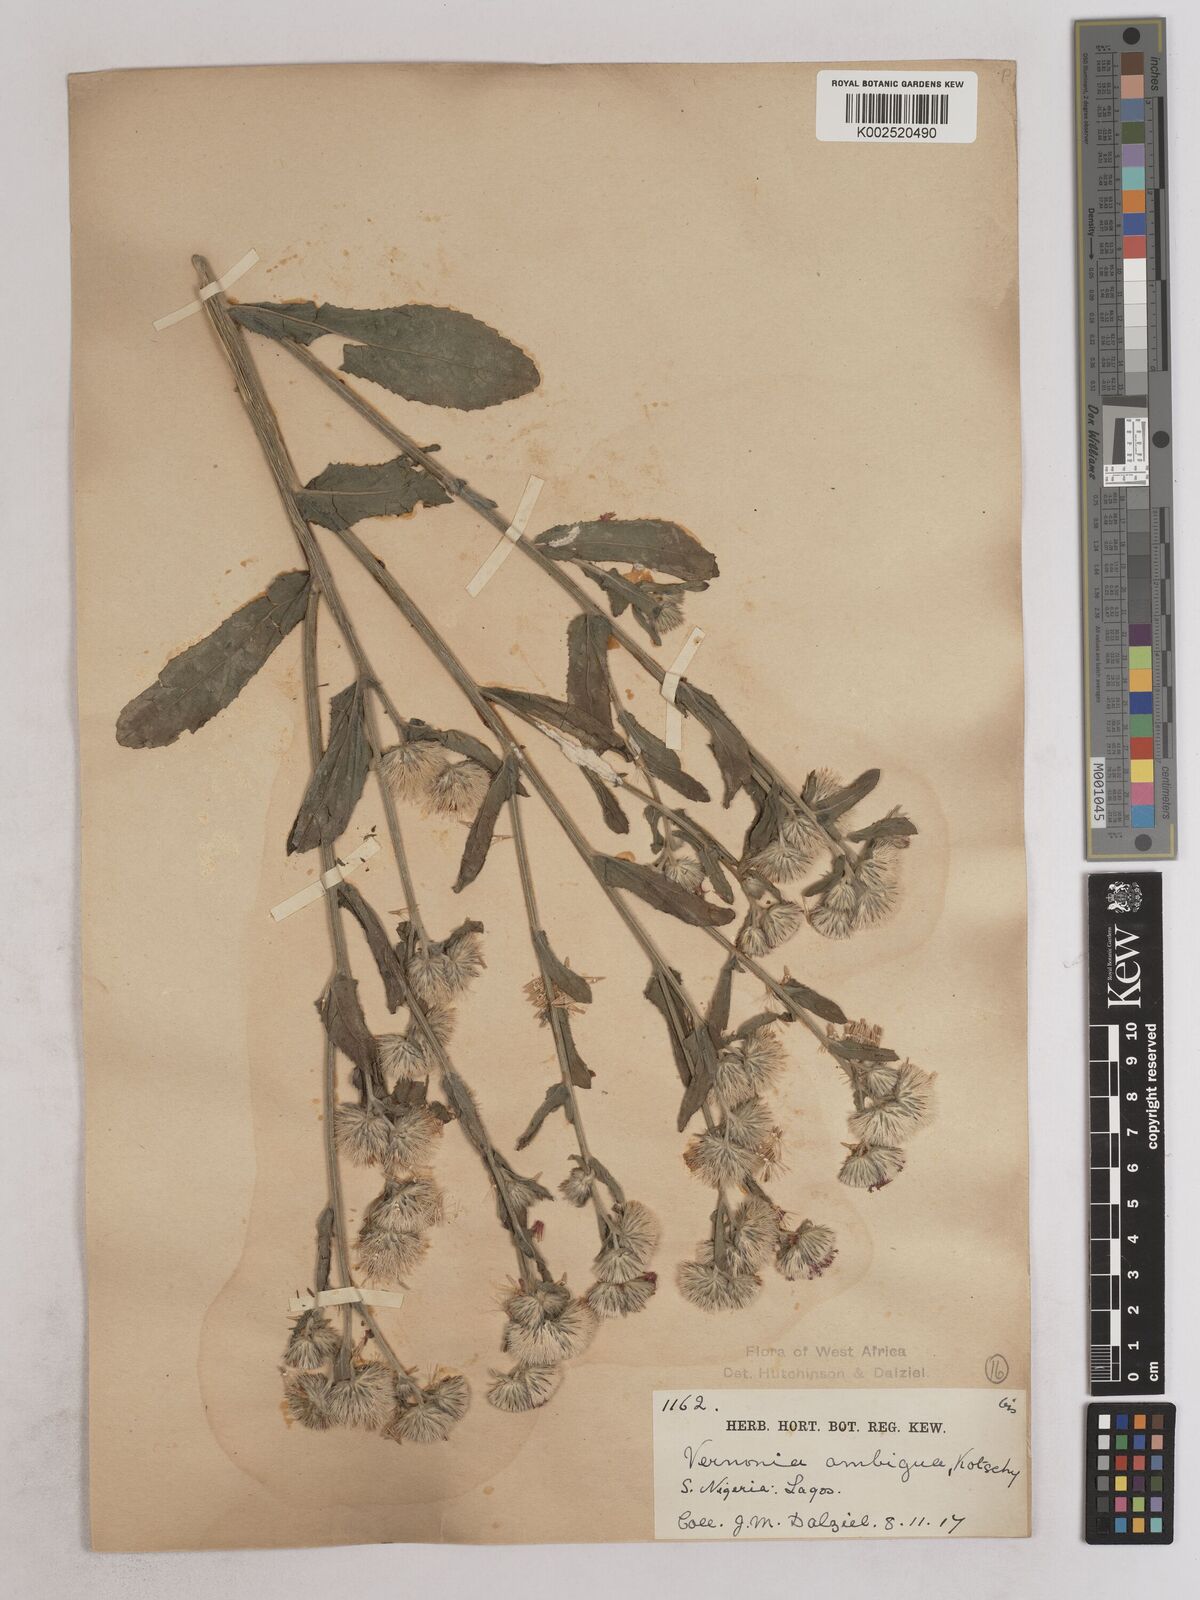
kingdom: Plantae
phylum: Tracheophyta
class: Magnoliopsida
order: Asterales
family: Asteraceae
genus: Vernoniastrum
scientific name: Vernoniastrum ambiguum
